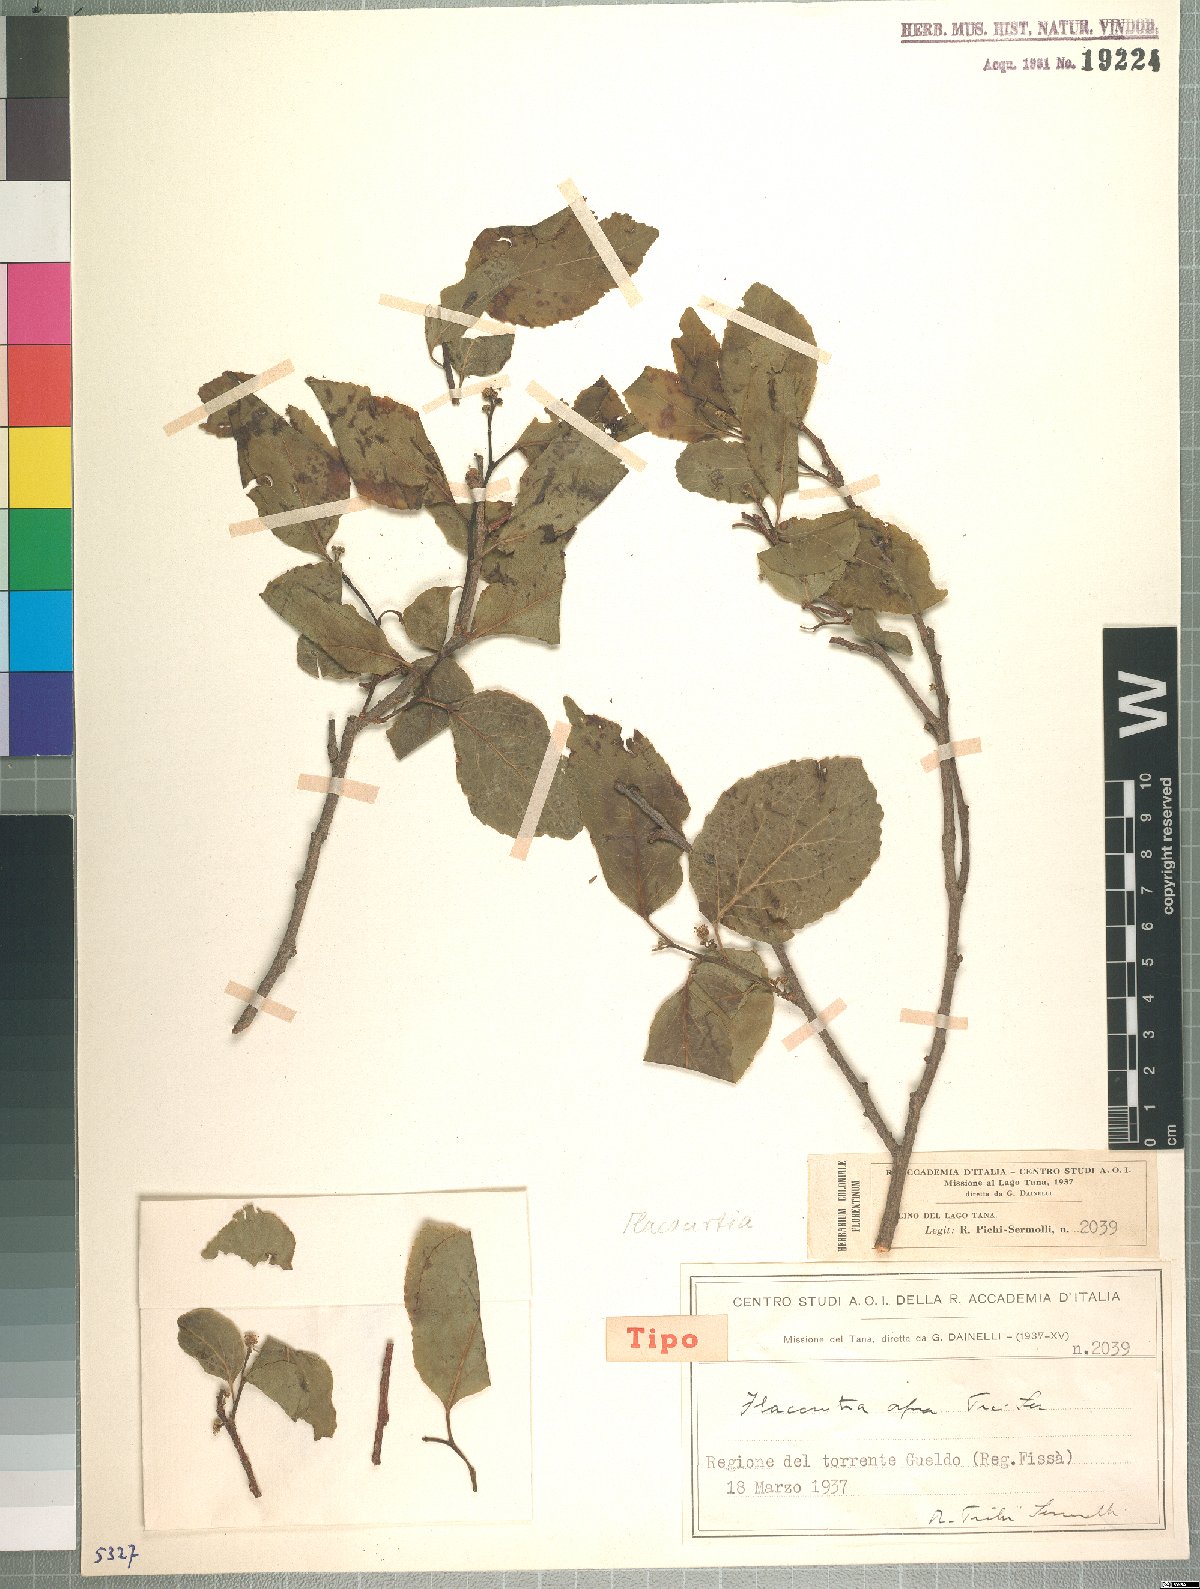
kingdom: Plantae
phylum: Tracheophyta
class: Magnoliopsida
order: Malpighiales
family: Salicaceae
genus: Flacourtia
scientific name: Flacourtia indica
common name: Governor's plum
